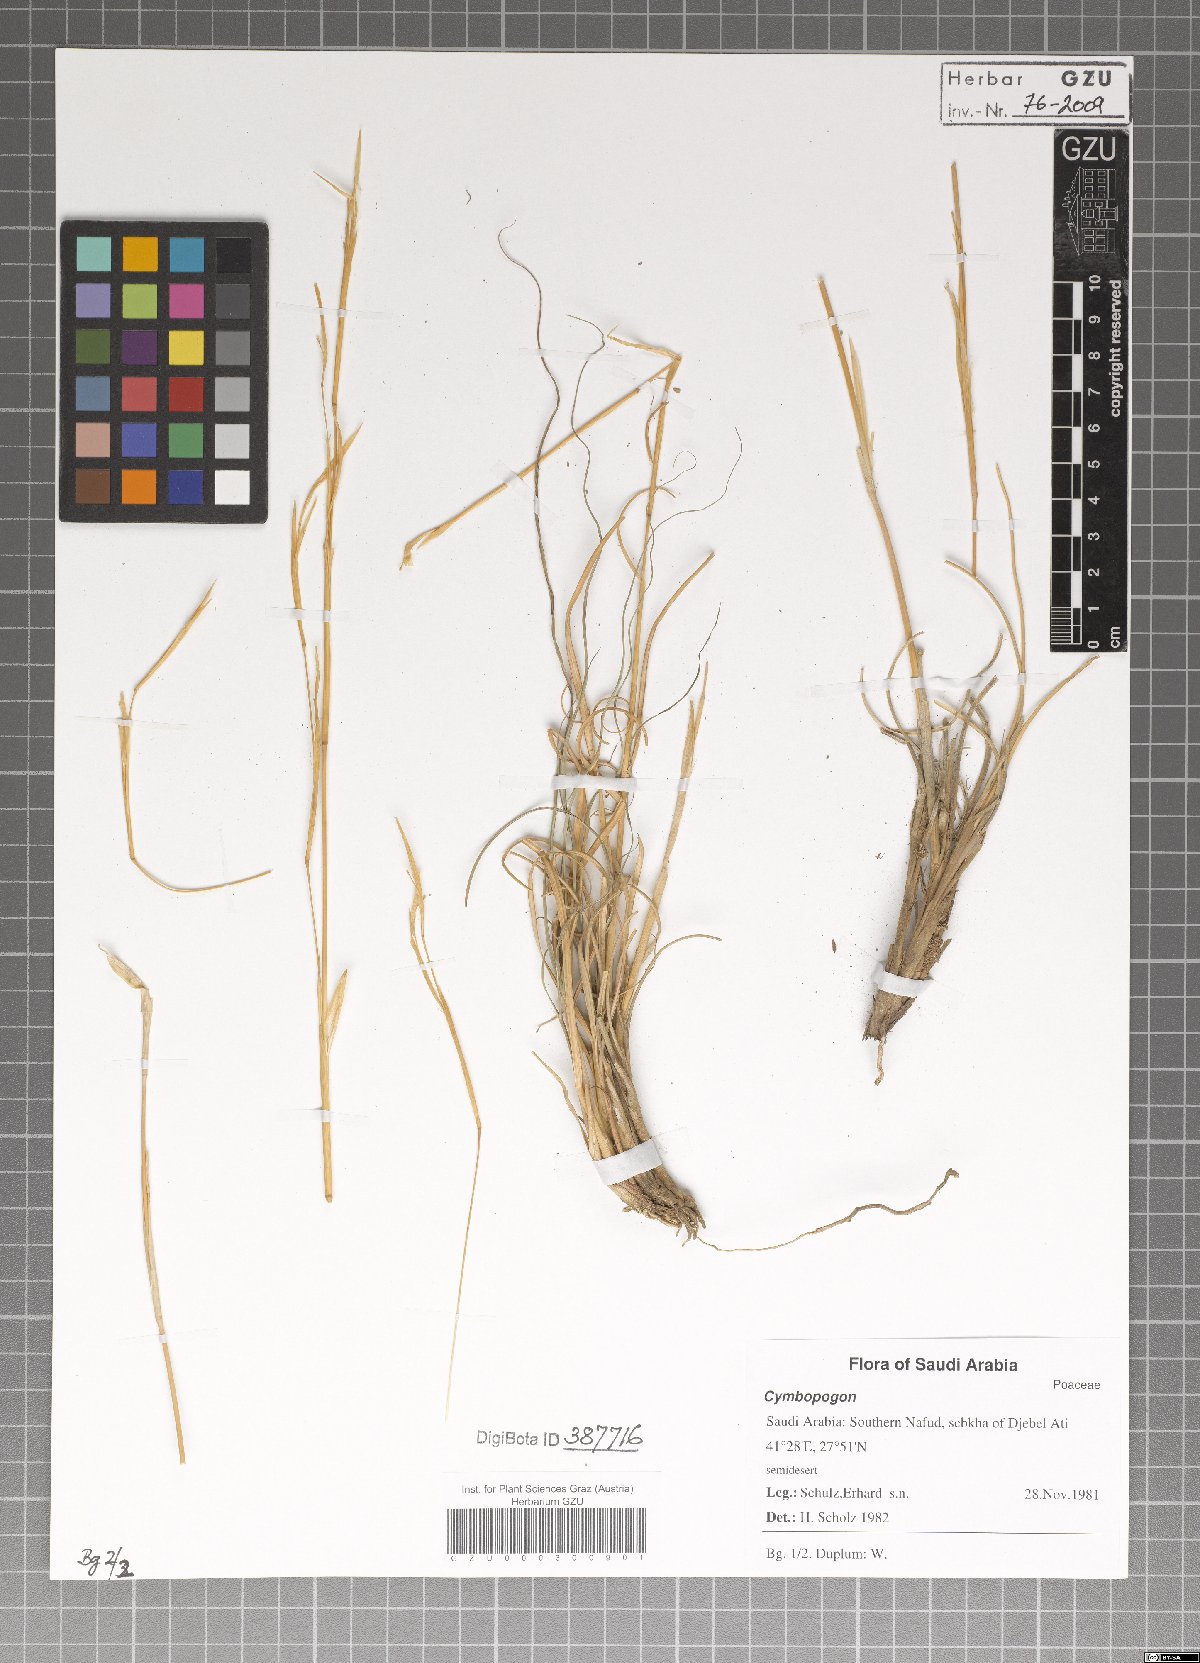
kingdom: Plantae
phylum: Tracheophyta
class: Liliopsida
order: Poales
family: Poaceae
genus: Cymbopogon
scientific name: Cymbopogon
